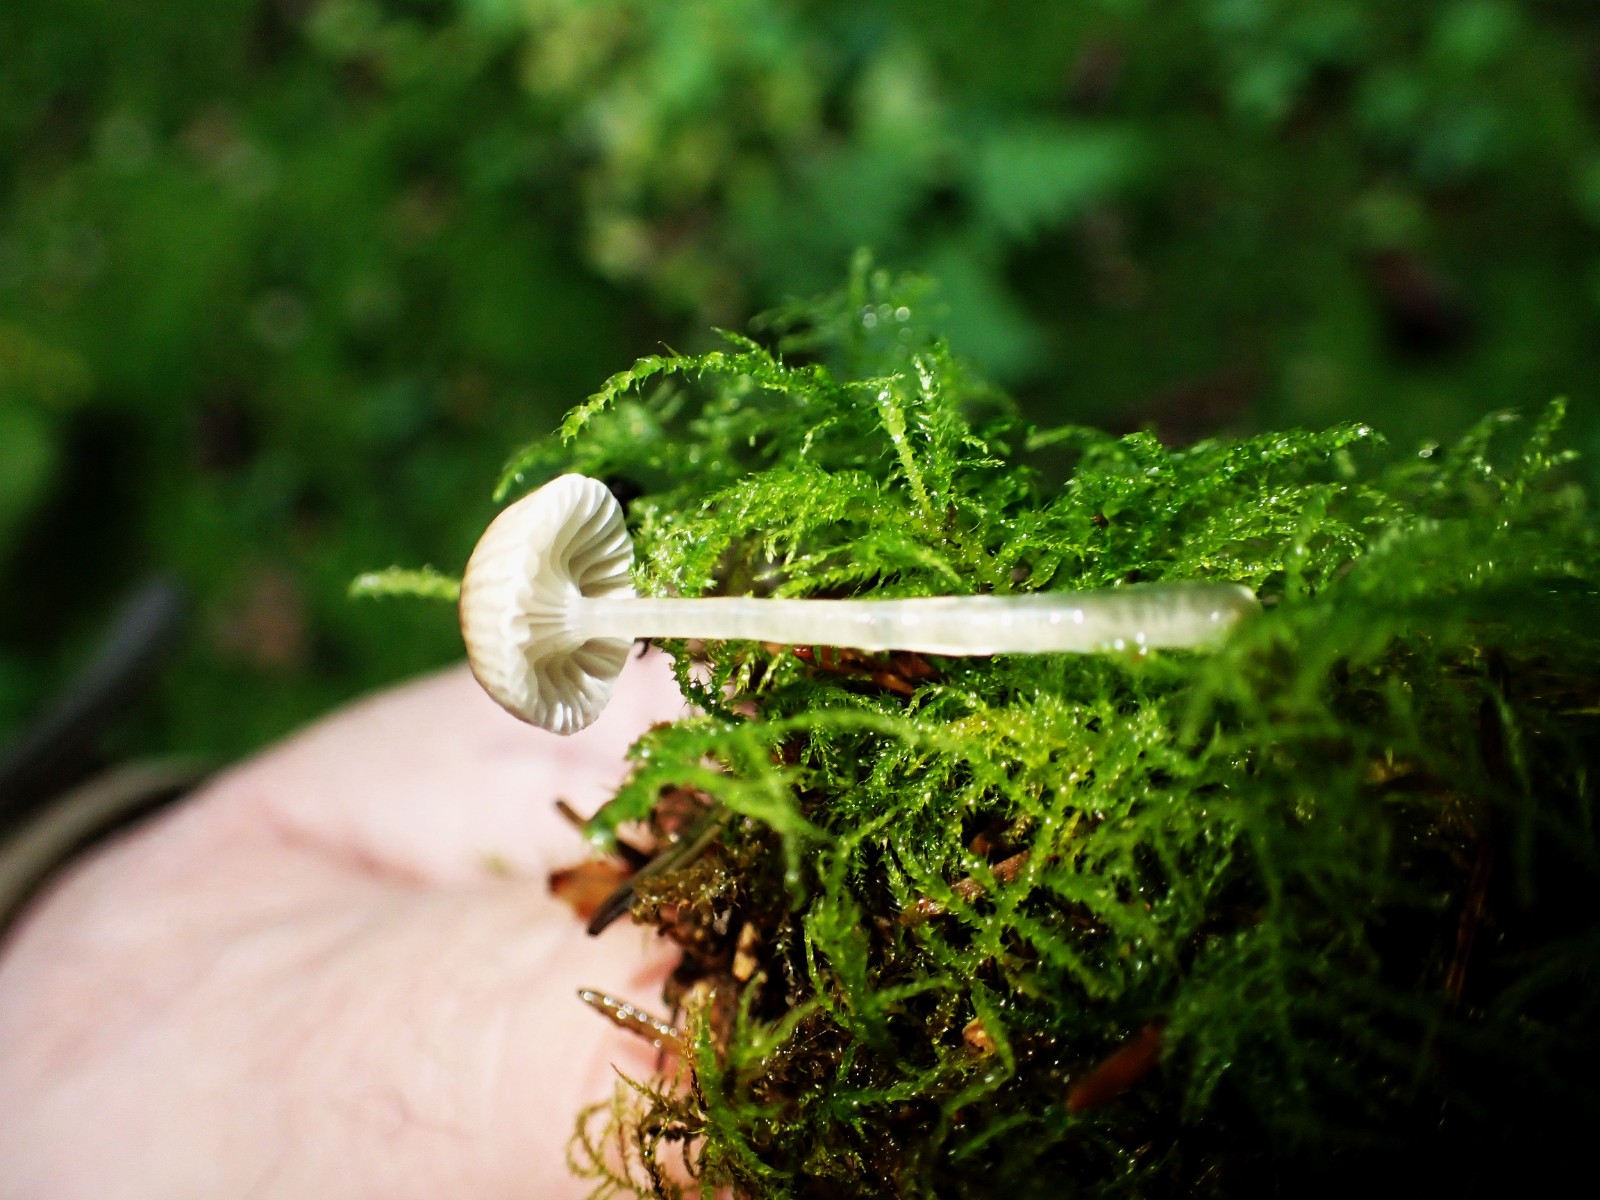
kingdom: Fungi
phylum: Basidiomycota
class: Agaricomycetes
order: Agaricales
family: Mycenaceae
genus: Roridomyces
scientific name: Roridomyces roridus
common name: slimfod
